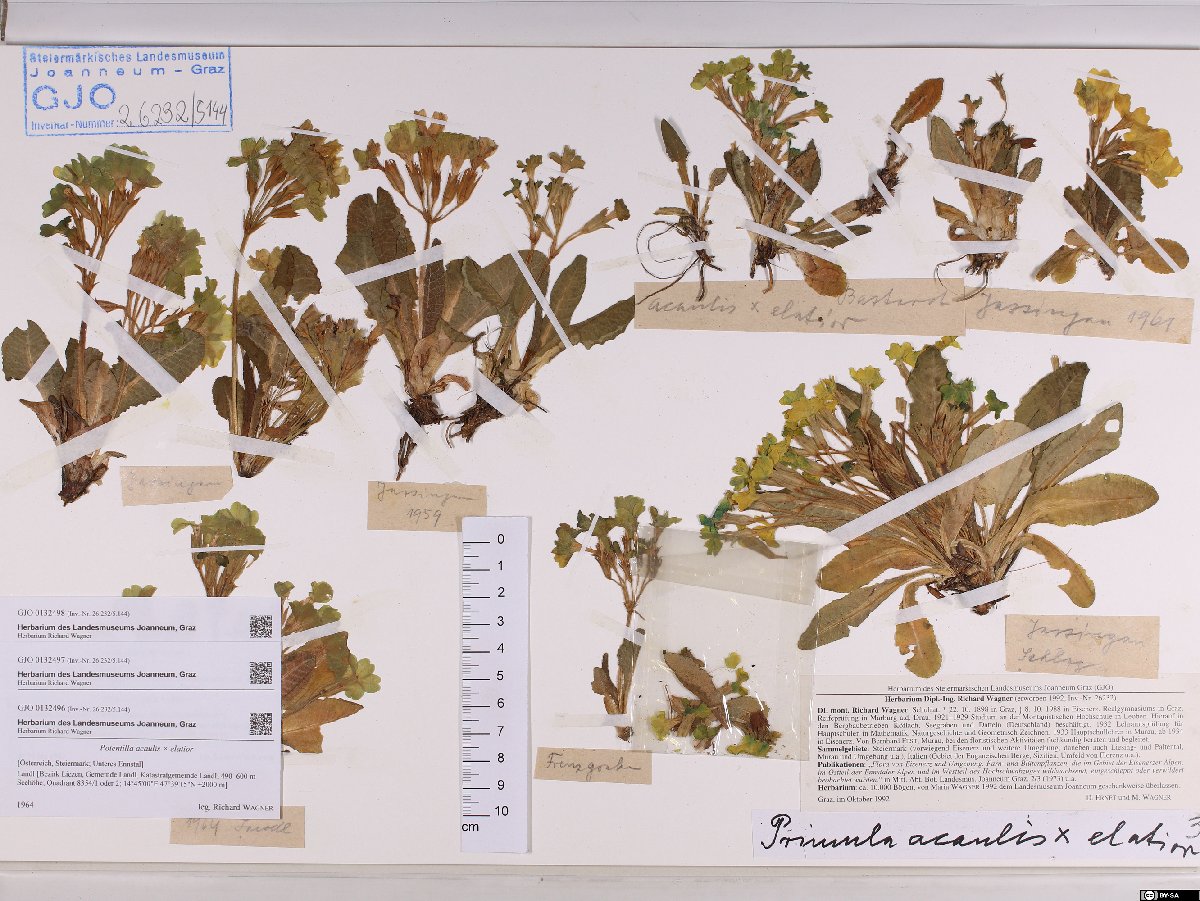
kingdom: Plantae
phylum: Tracheophyta
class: Magnoliopsida
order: Ericales
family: Primulaceae
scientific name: Primulaceae
